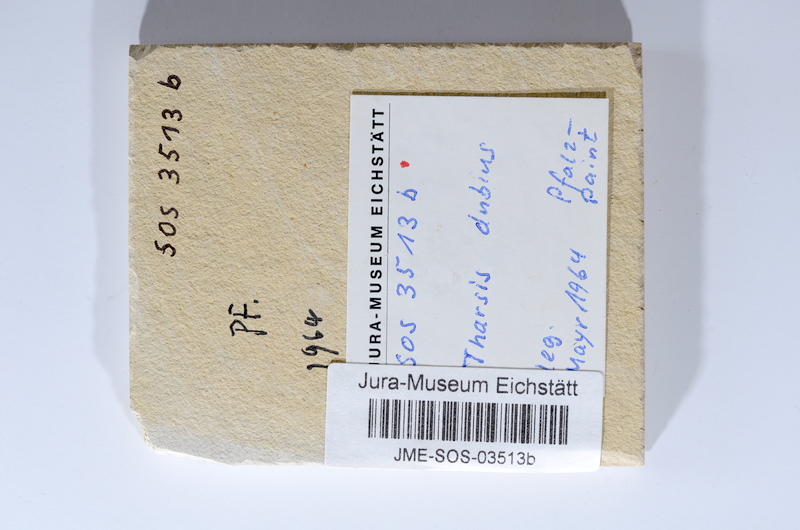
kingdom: Animalia
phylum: Chordata
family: Ascalaboidae
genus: Tharsis
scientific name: Tharsis dubius
